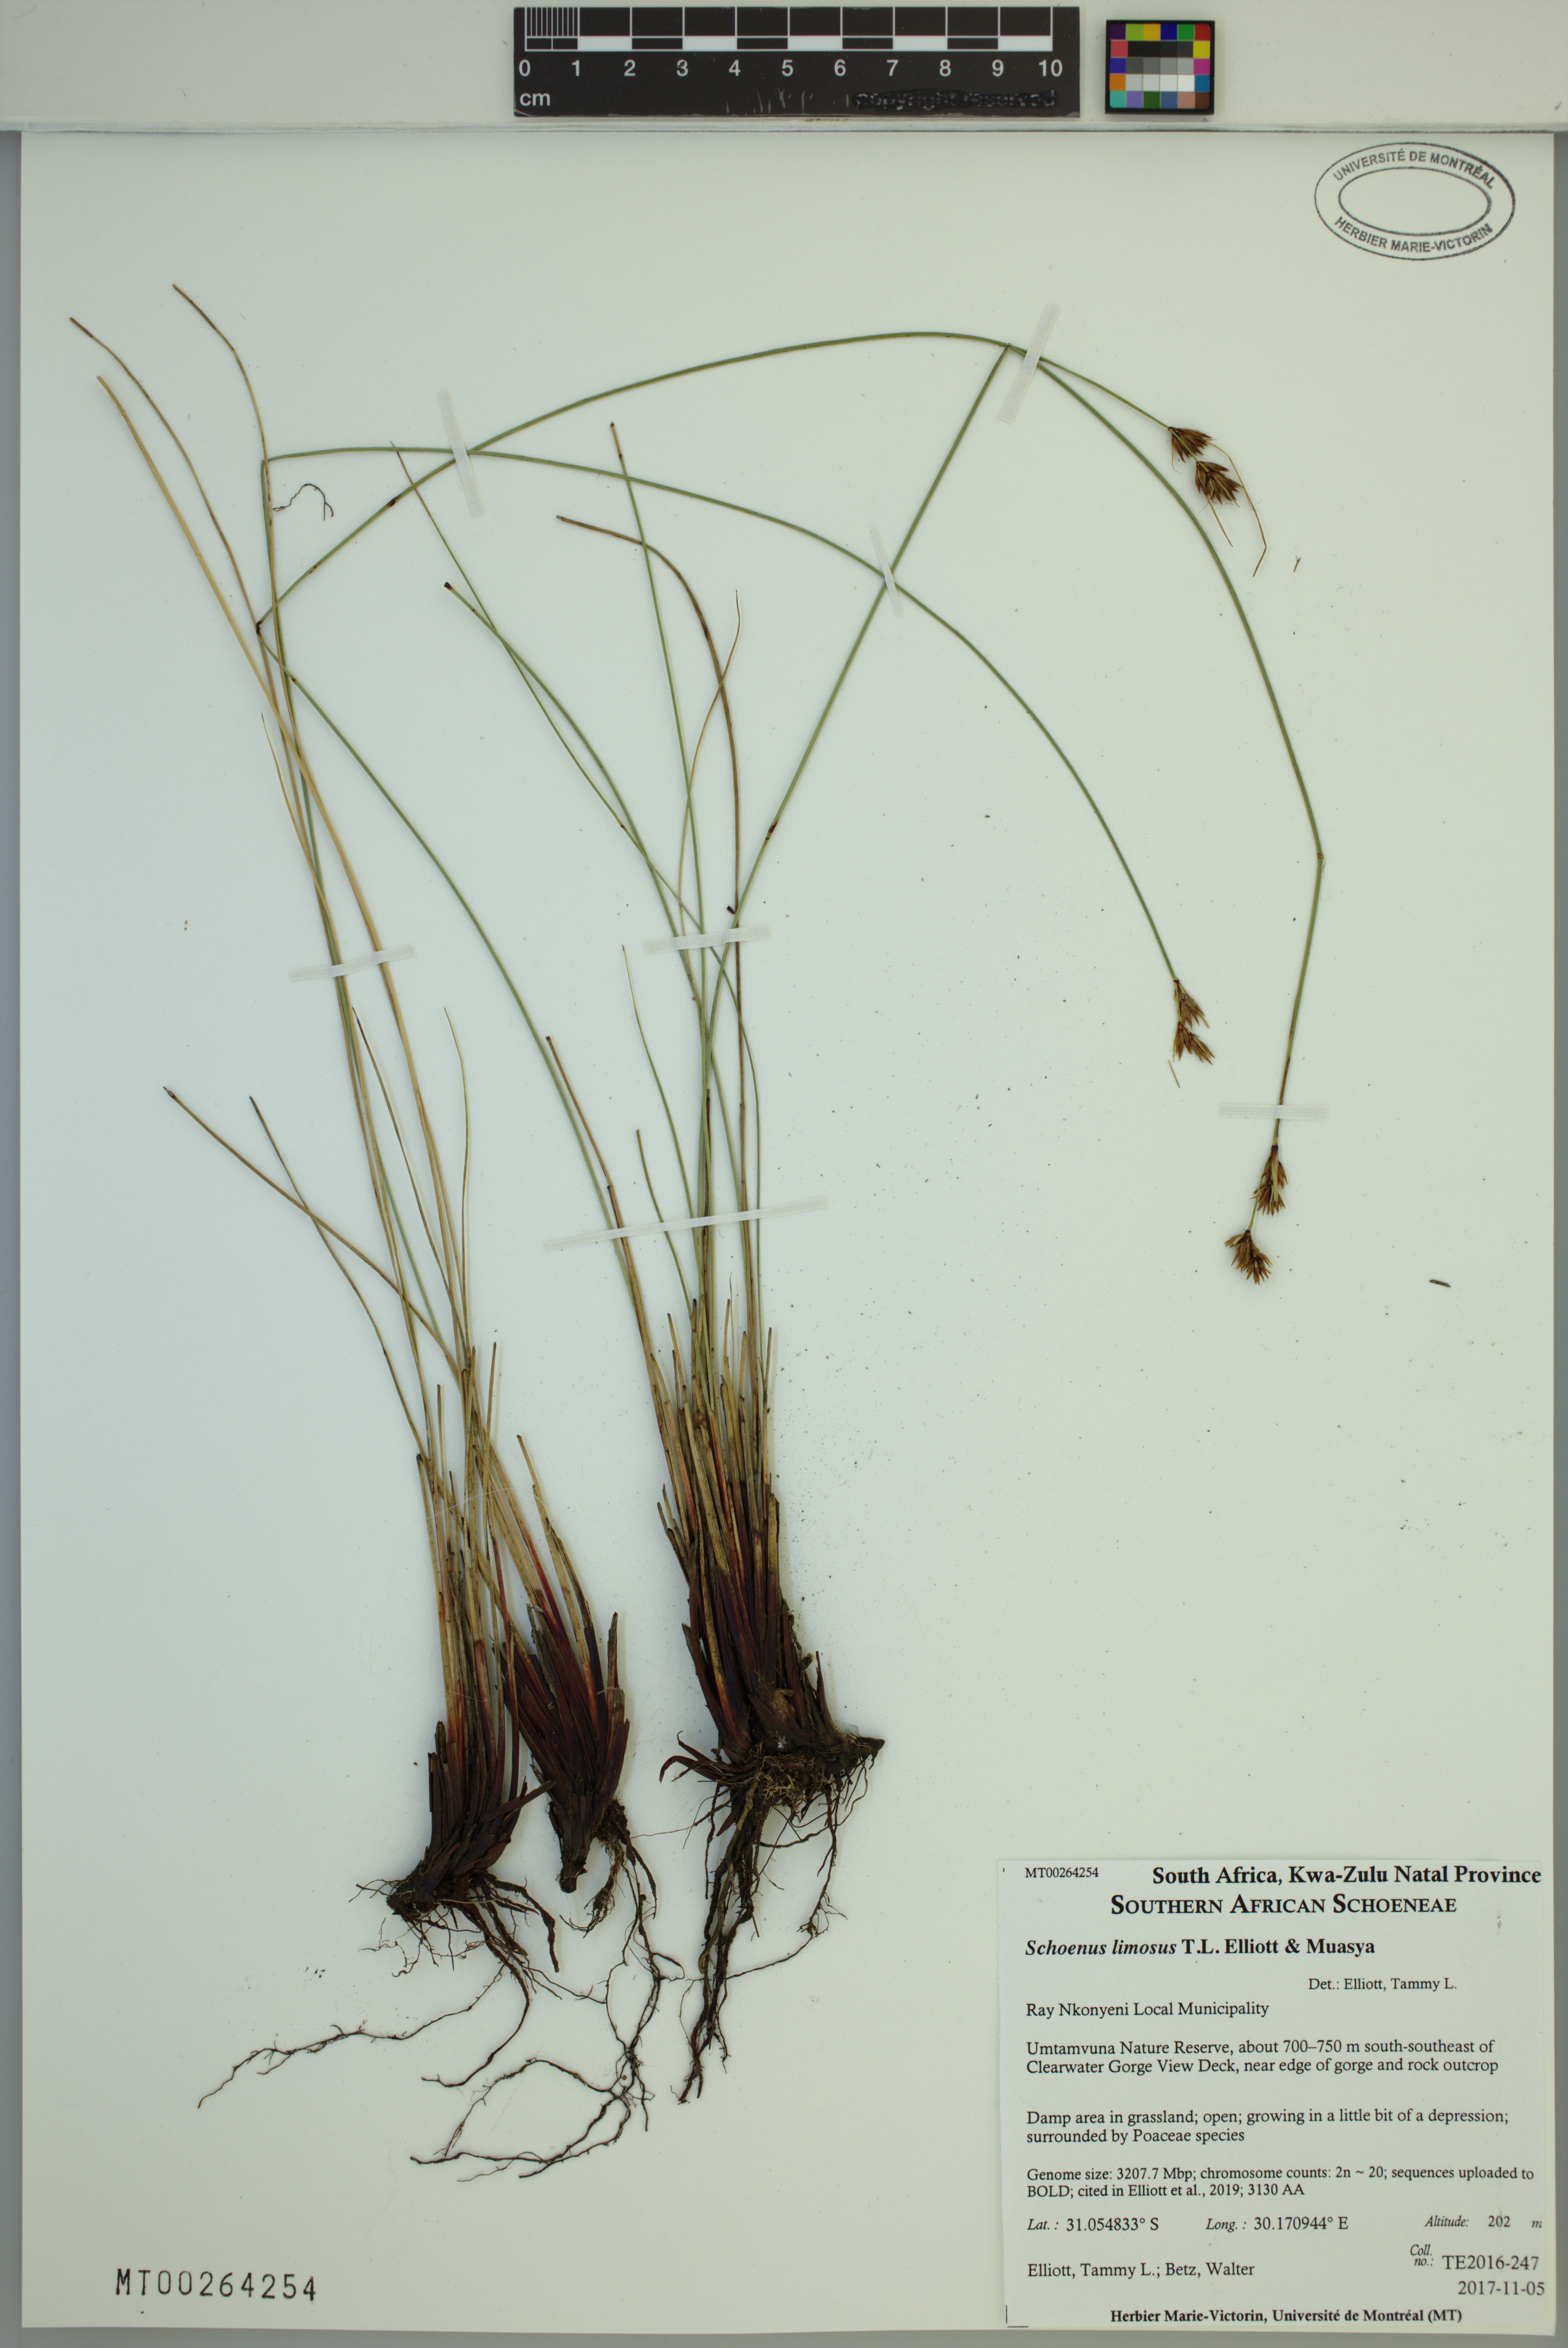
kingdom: Plantae
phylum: Tracheophyta
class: Liliopsida
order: Poales
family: Cyperaceae
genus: Schoenus
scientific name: Schoenus limosus
